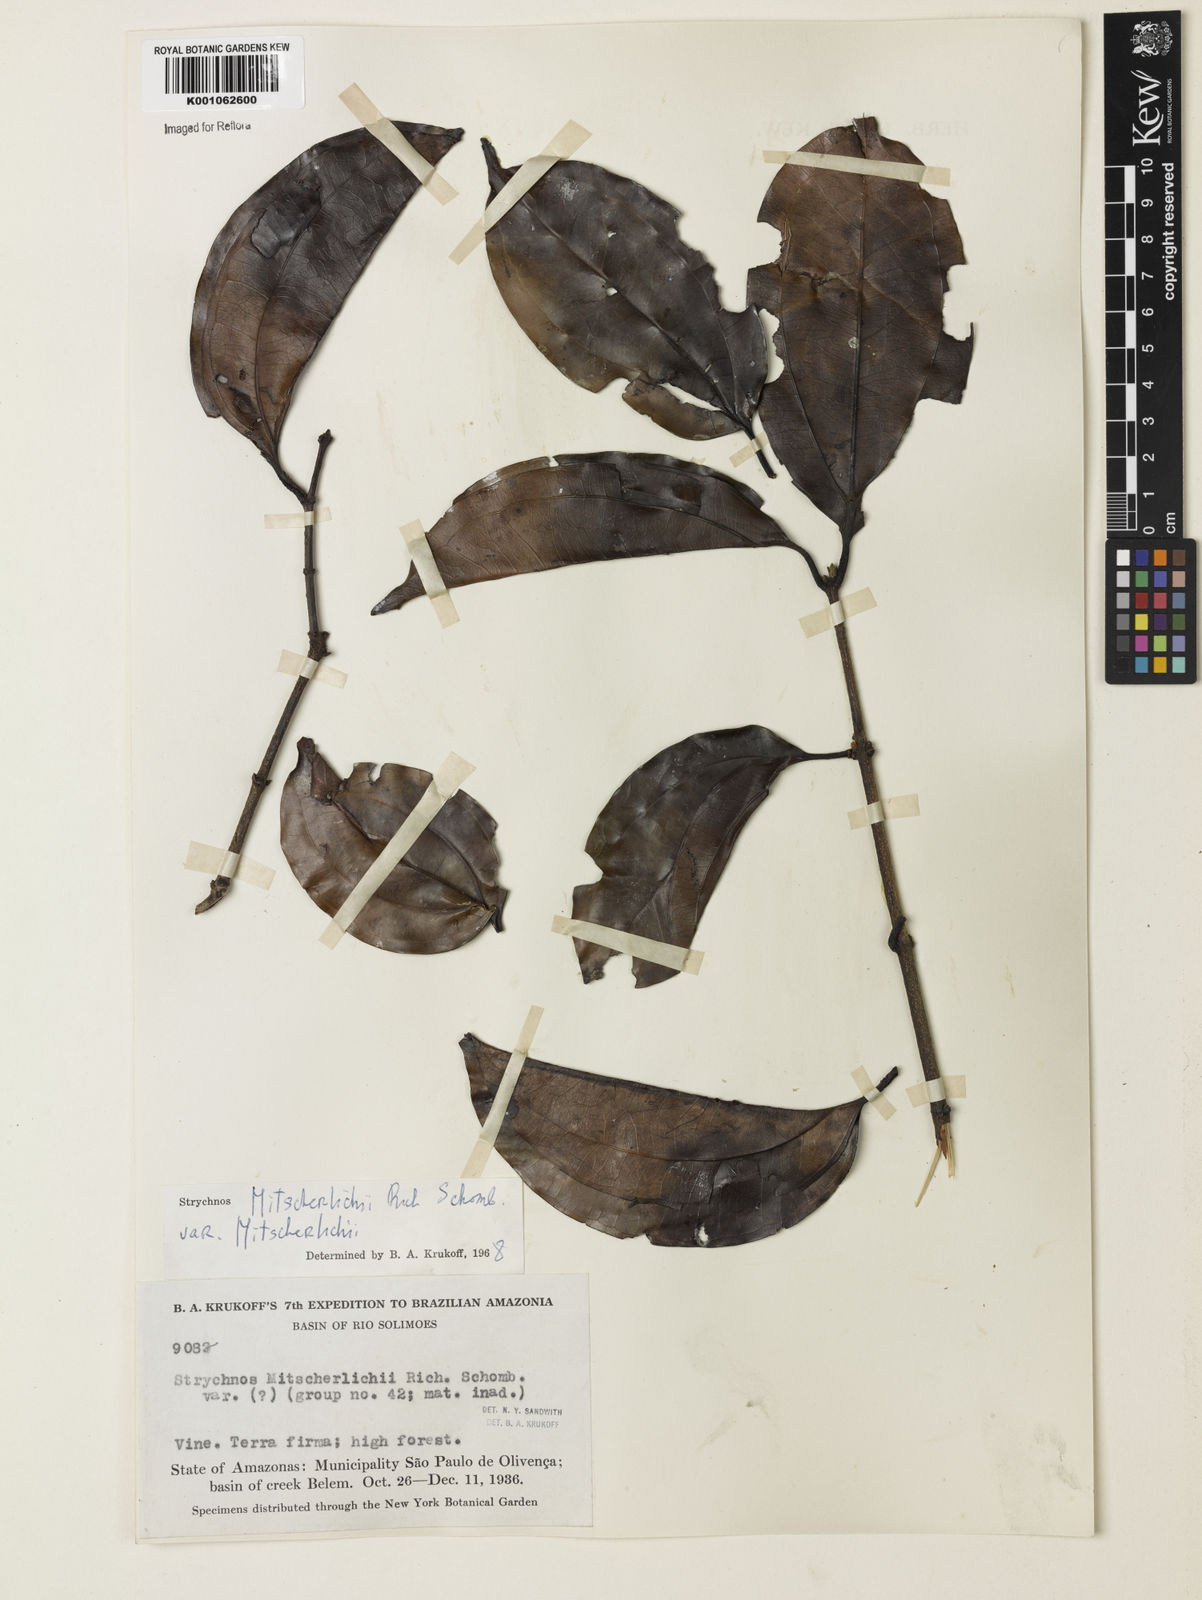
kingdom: Plantae
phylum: Tracheophyta
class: Magnoliopsida
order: Gentianales
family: Loganiaceae
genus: Strychnos
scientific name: Strychnos mitscherlichii
